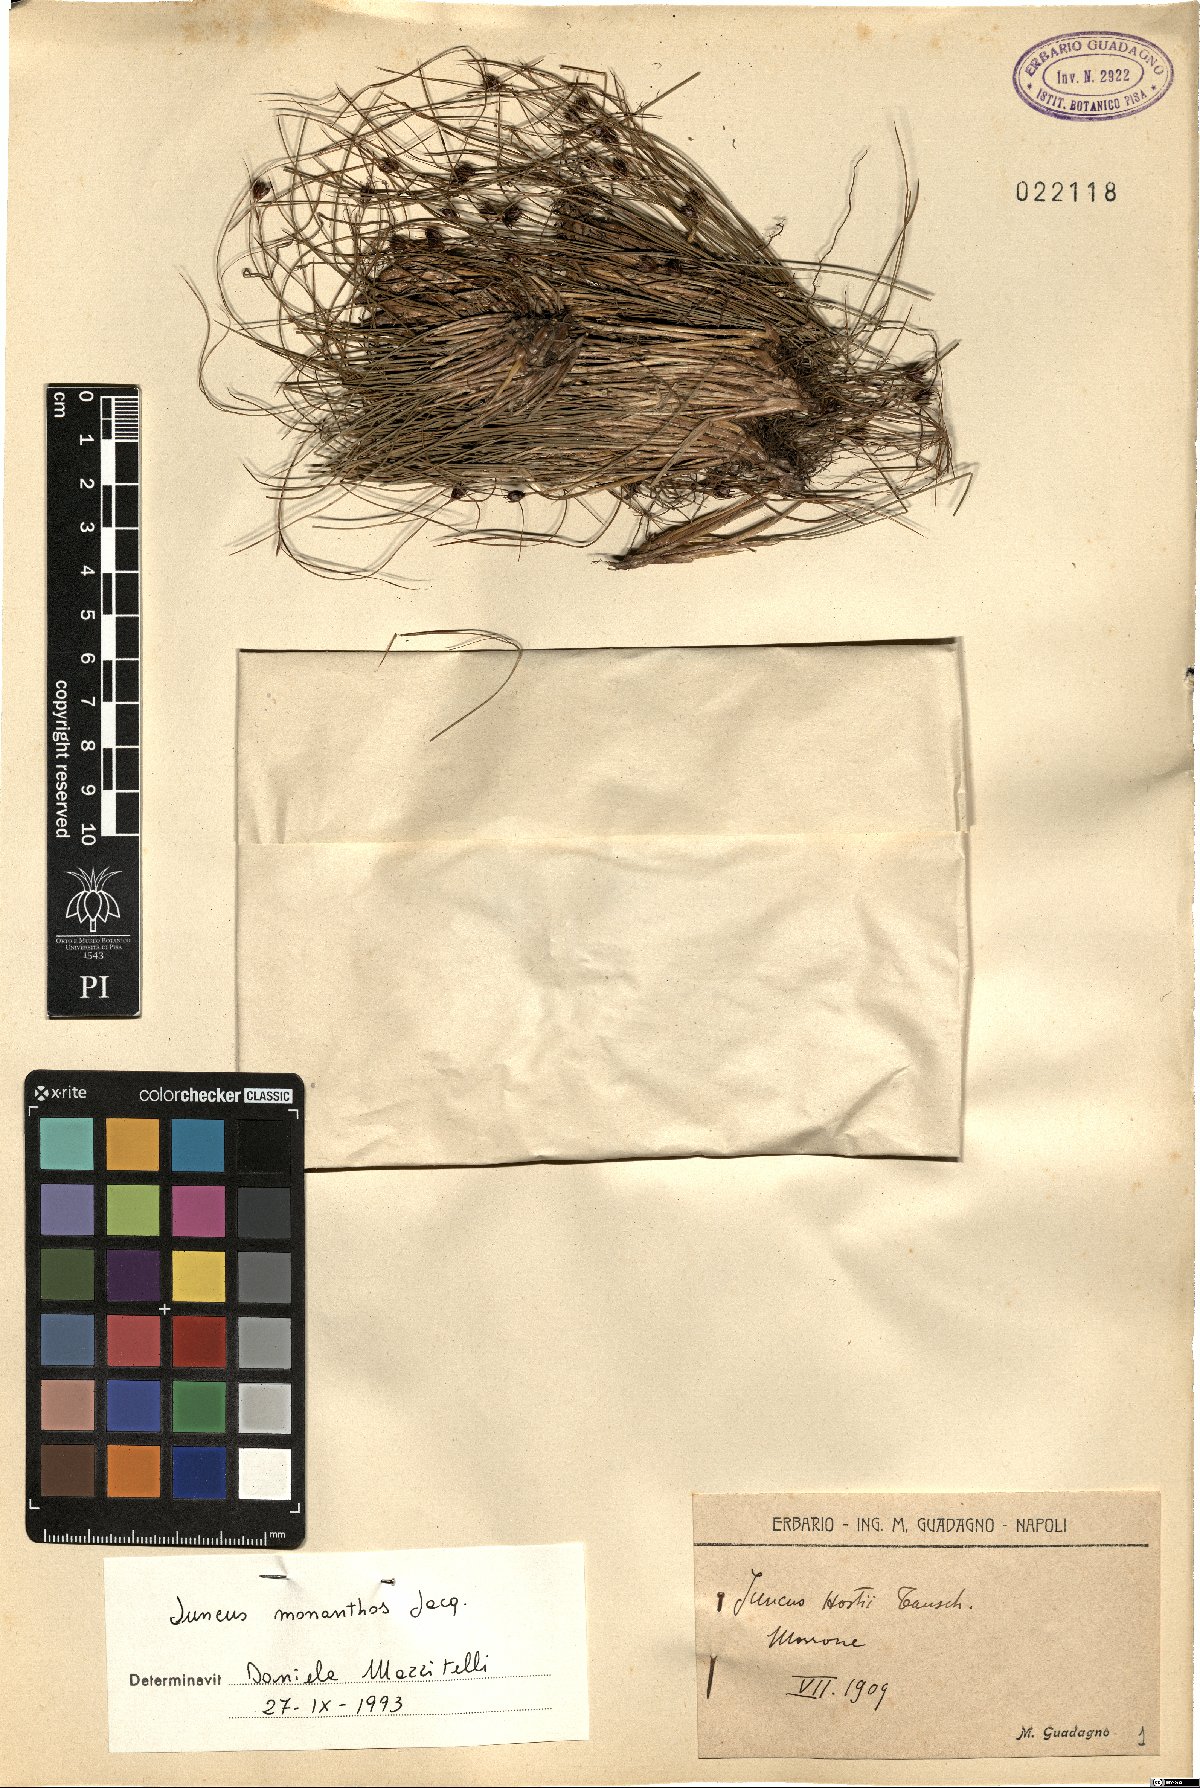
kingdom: Plantae
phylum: Tracheophyta
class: Liliopsida
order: Poales
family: Juncaceae
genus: Oreojuncus
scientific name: Oreojuncus monanthos
